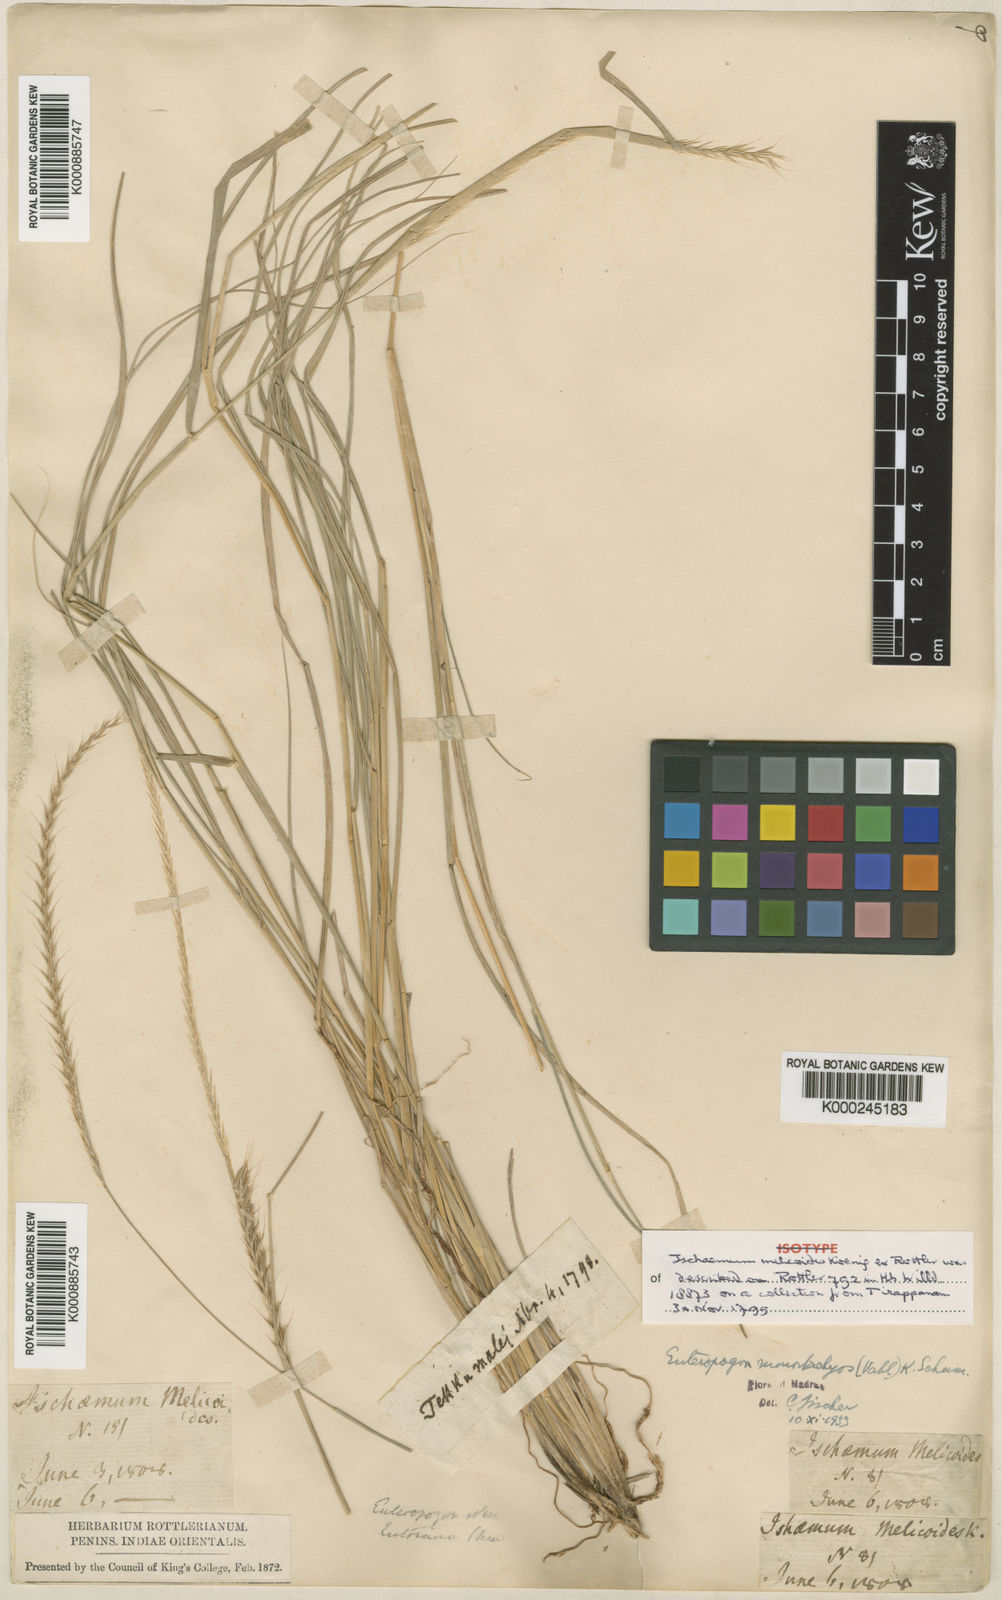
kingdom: Plantae
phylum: Tracheophyta
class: Liliopsida
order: Poales
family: Poaceae
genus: Enteropogon
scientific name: Enteropogon
